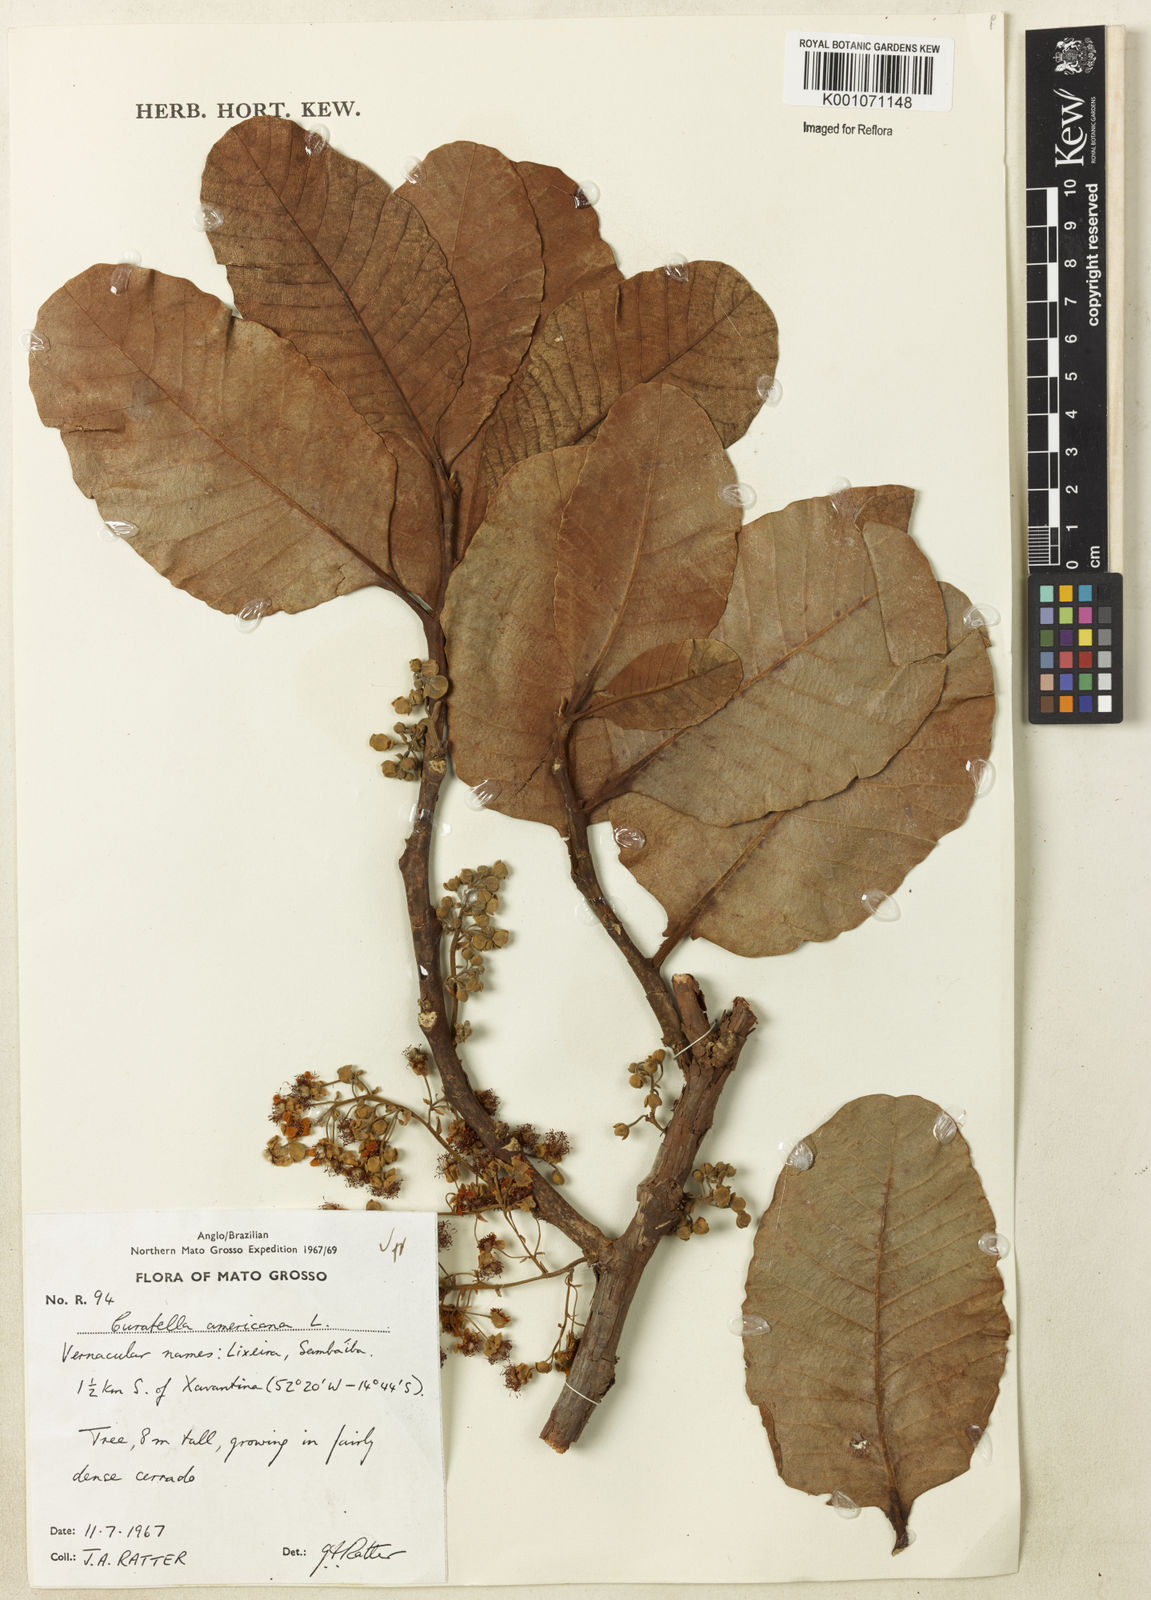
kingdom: Plantae
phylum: Tracheophyta
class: Magnoliopsida
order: Dilleniales
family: Dilleniaceae
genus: Curatella
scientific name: Curatella americana
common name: Sandpaper tree
